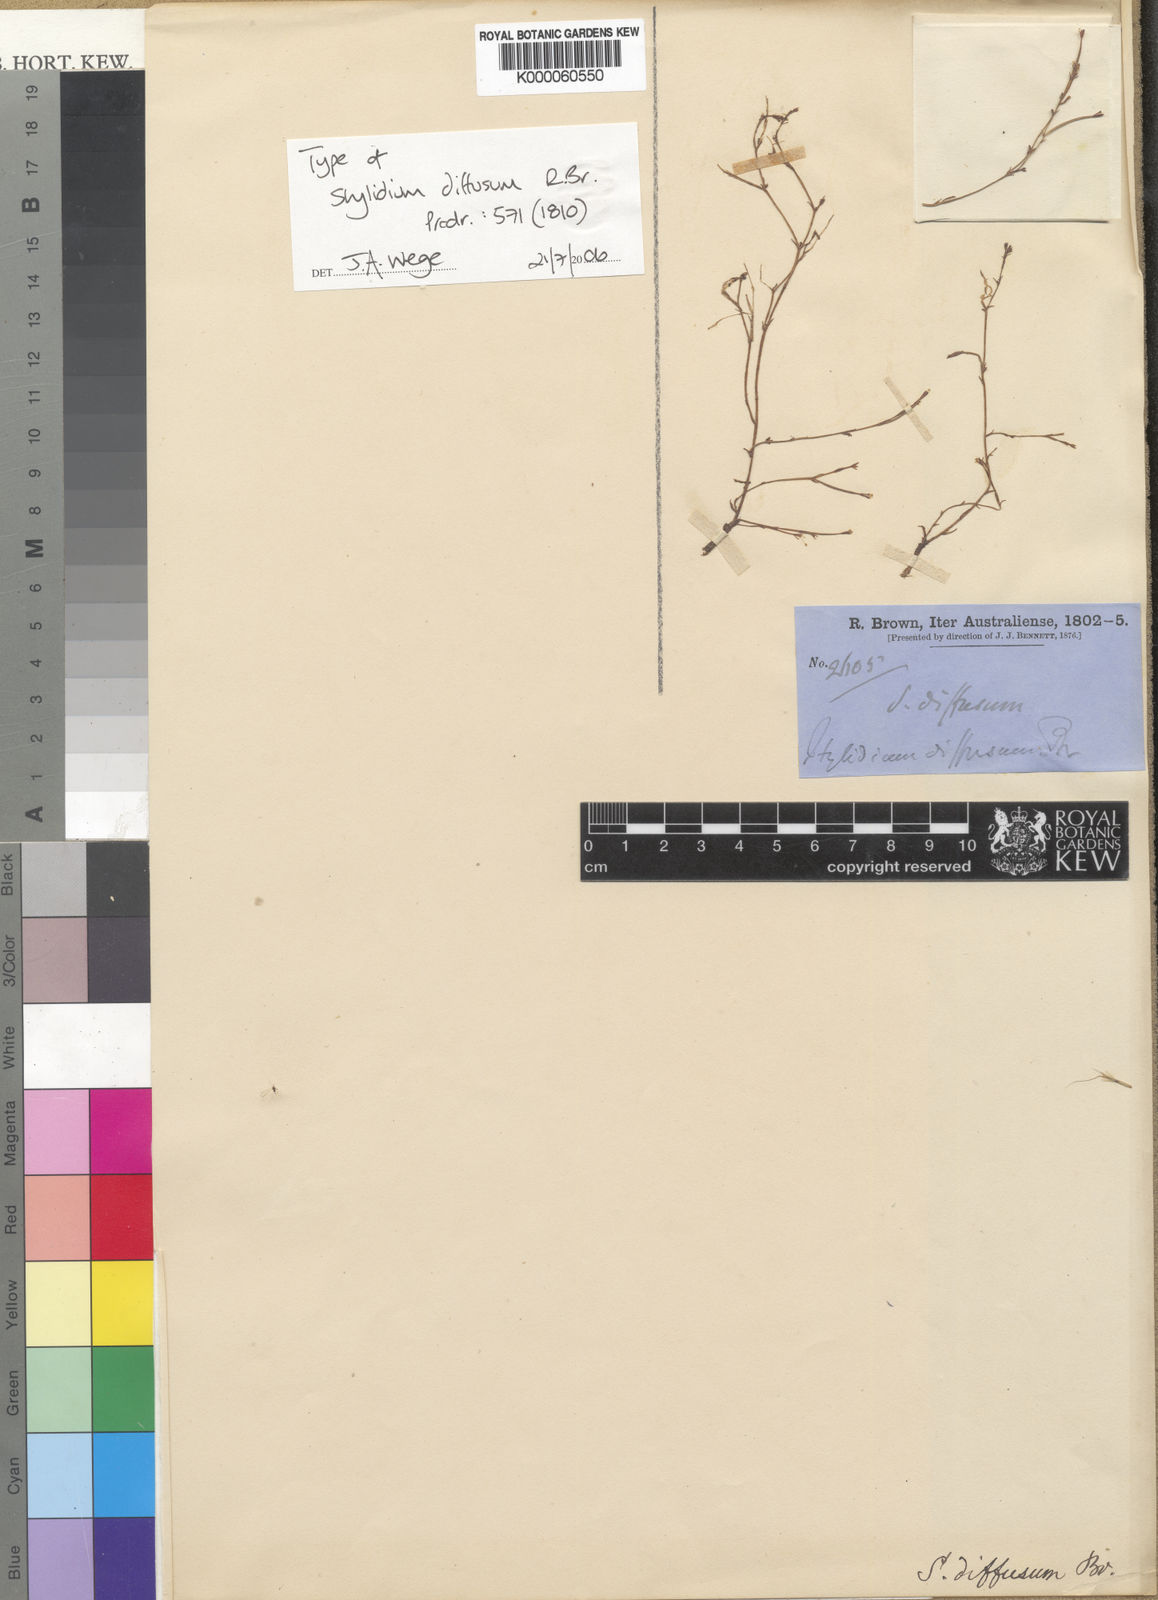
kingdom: Plantae
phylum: Tracheophyta
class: Magnoliopsida
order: Asterales
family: Stylidiaceae
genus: Stylidium
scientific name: Stylidium diffusum
